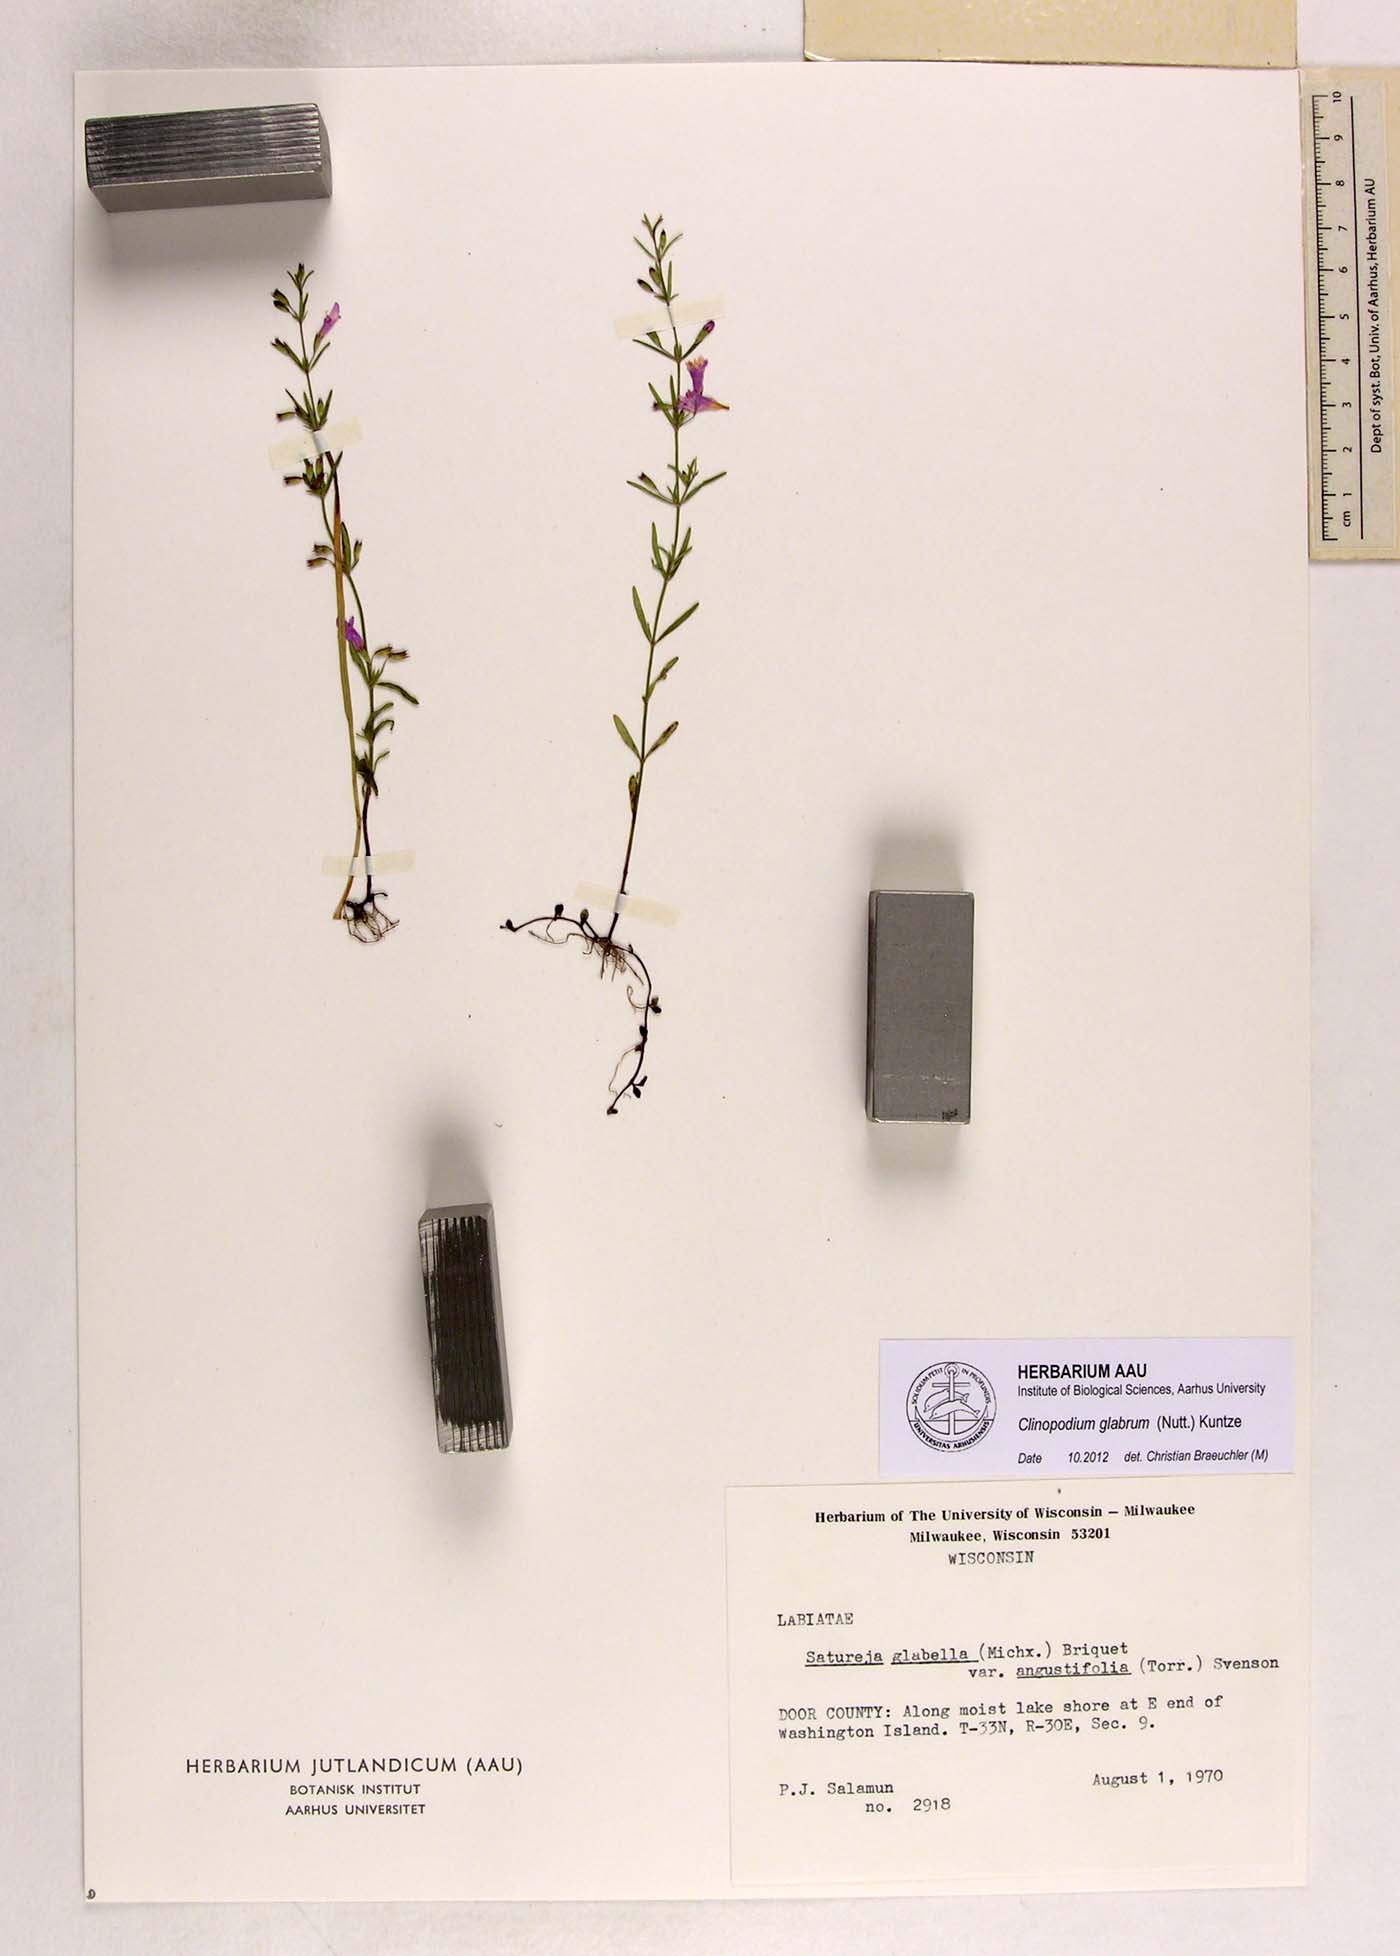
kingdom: Plantae
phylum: Tracheophyta
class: Magnoliopsida
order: Lamiales
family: Lamiaceae
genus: Hedeoma
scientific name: Hedeoma glabra
